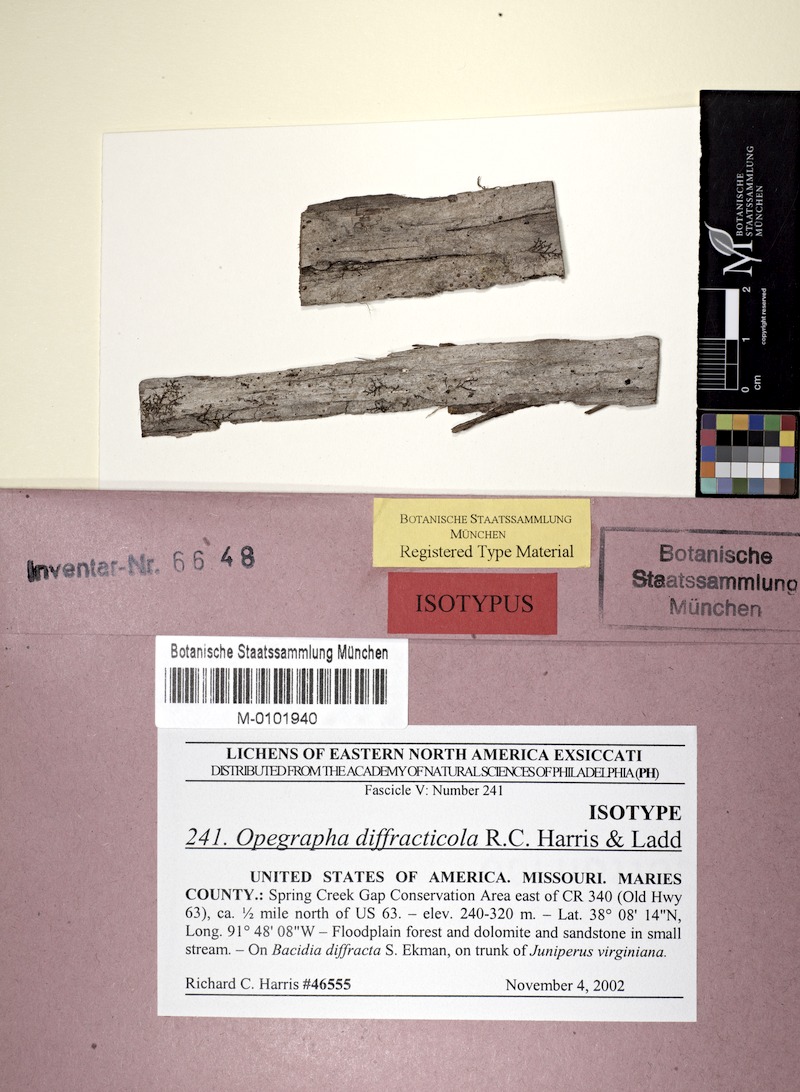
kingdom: Fungi
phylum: Ascomycota
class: Lecanoromycetes
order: Lecanorales
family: Ramalinaceae
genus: Bacidia
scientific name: Bacidia diffracta
